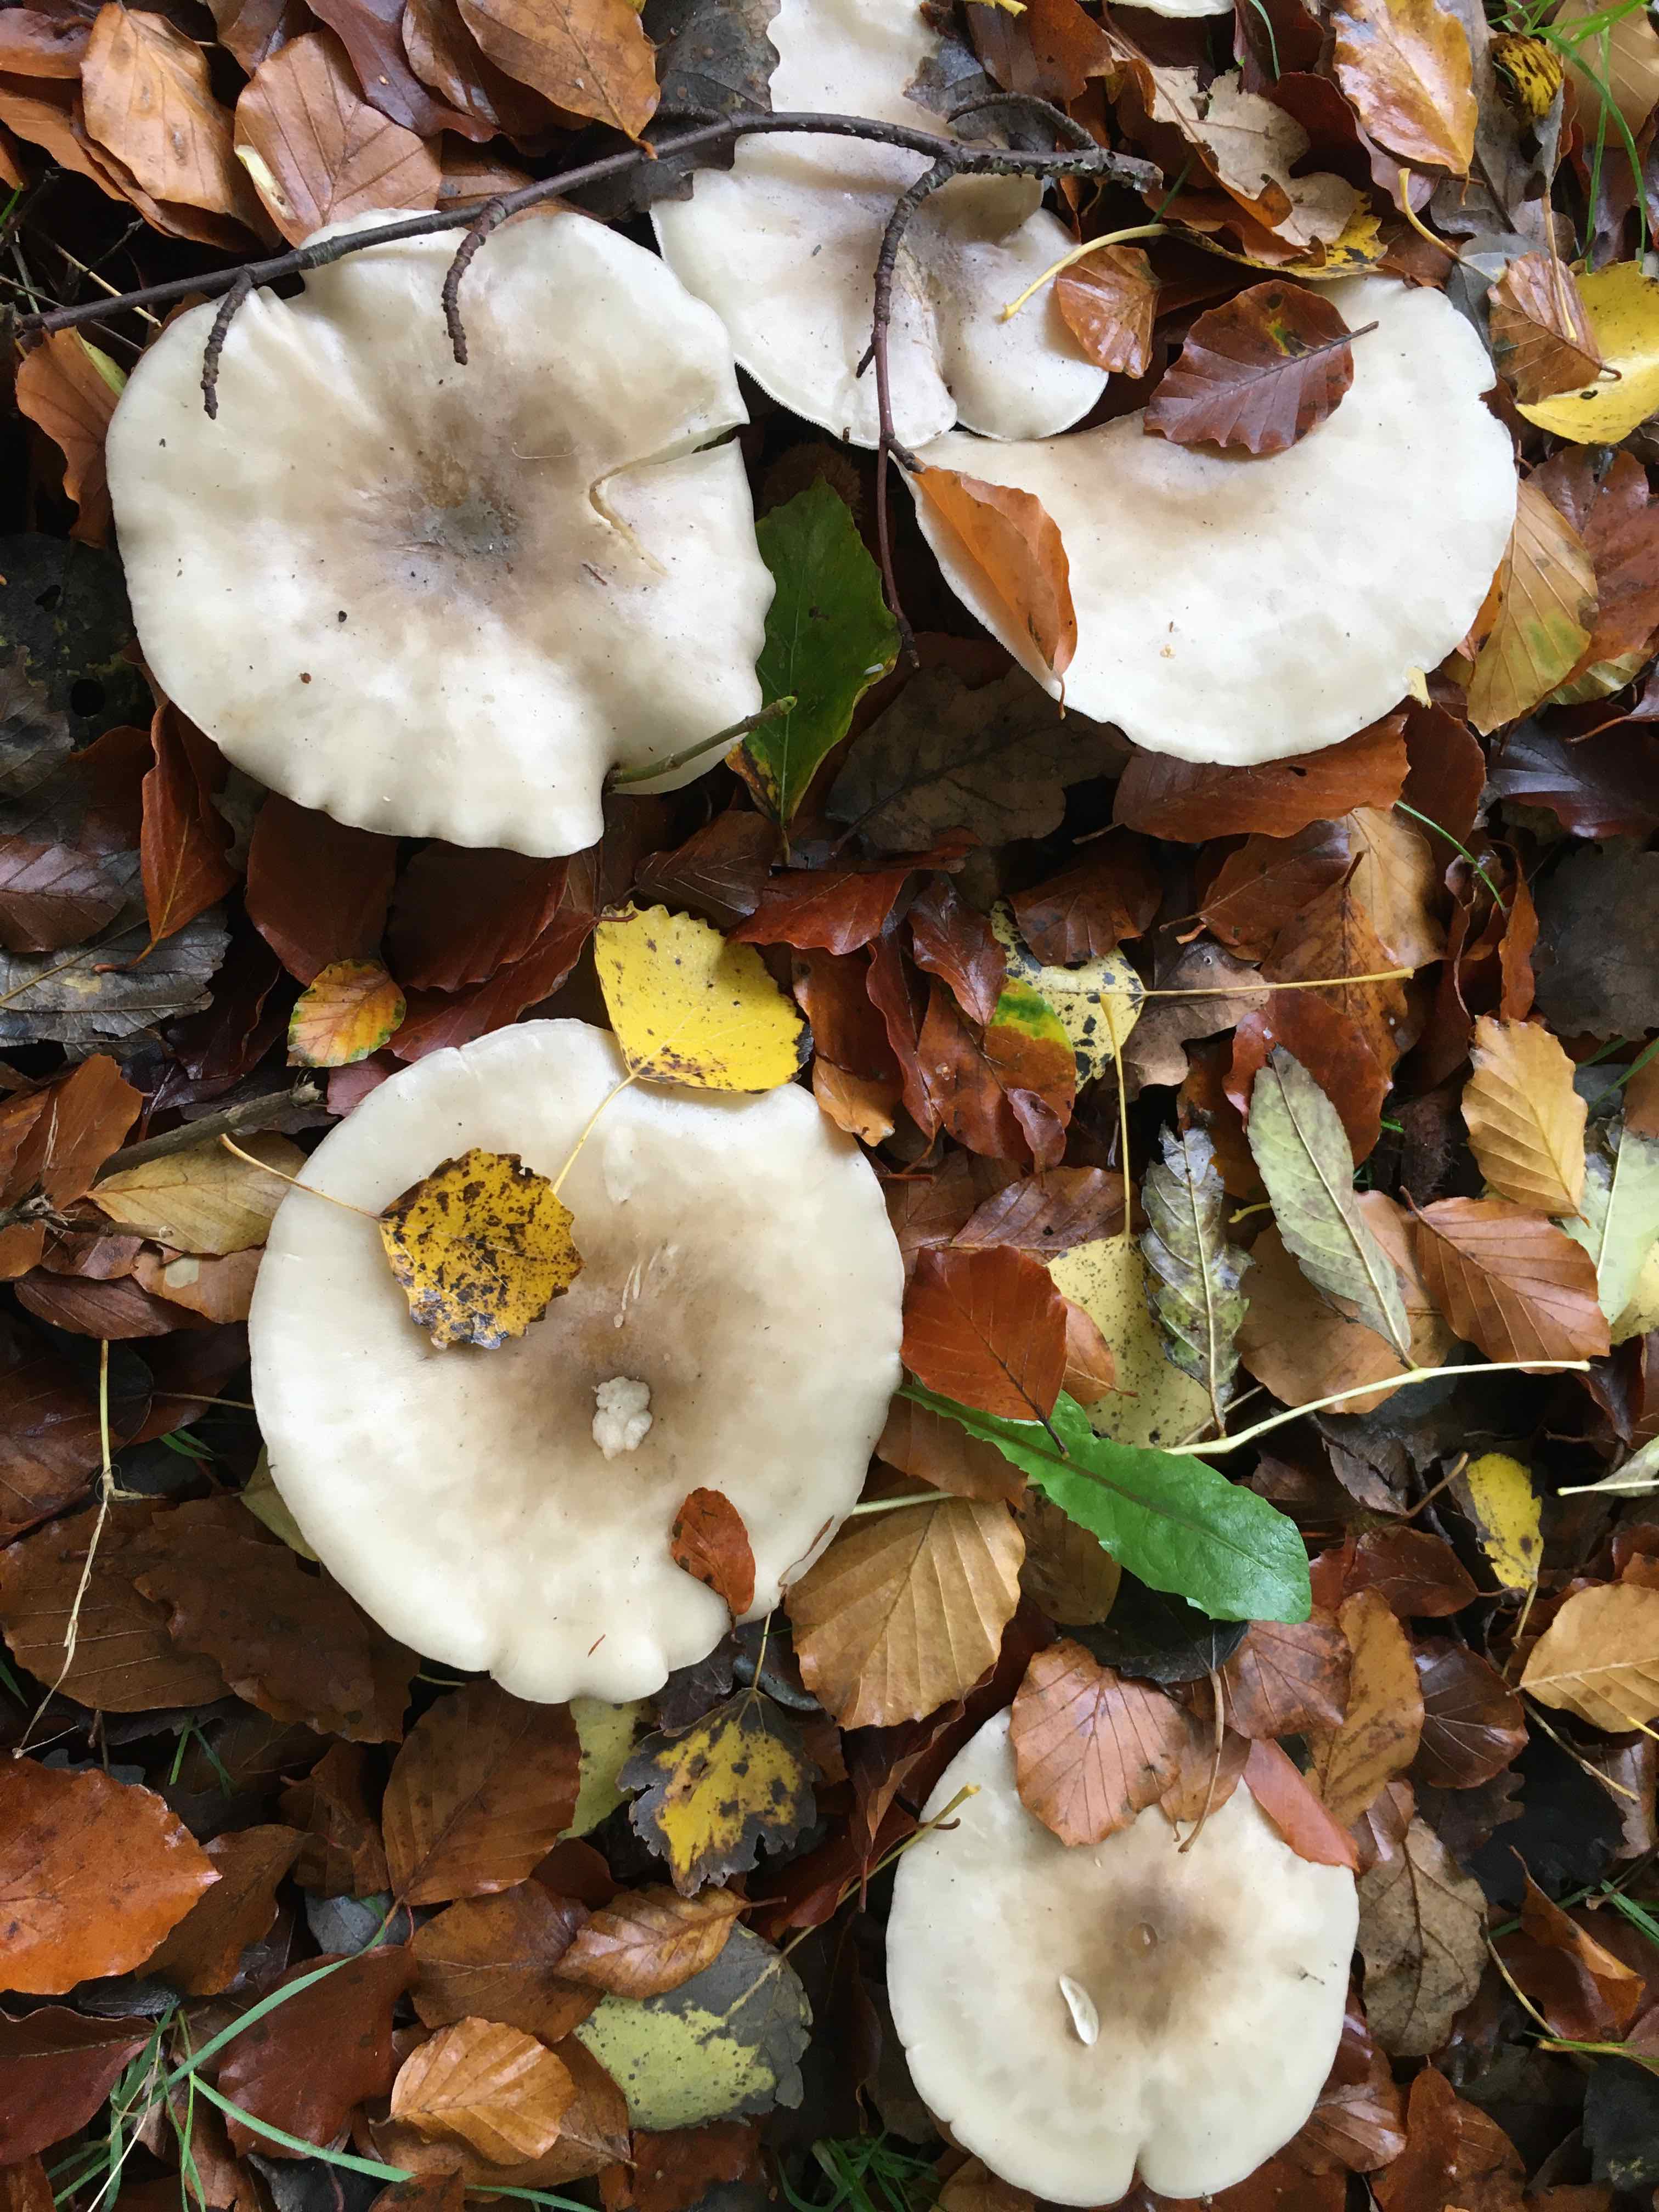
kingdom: Fungi
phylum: Basidiomycota
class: Agaricomycetes
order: Agaricales
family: Tricholomataceae
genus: Clitocybe
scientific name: Clitocybe nebularis
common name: tåge-tragthat
